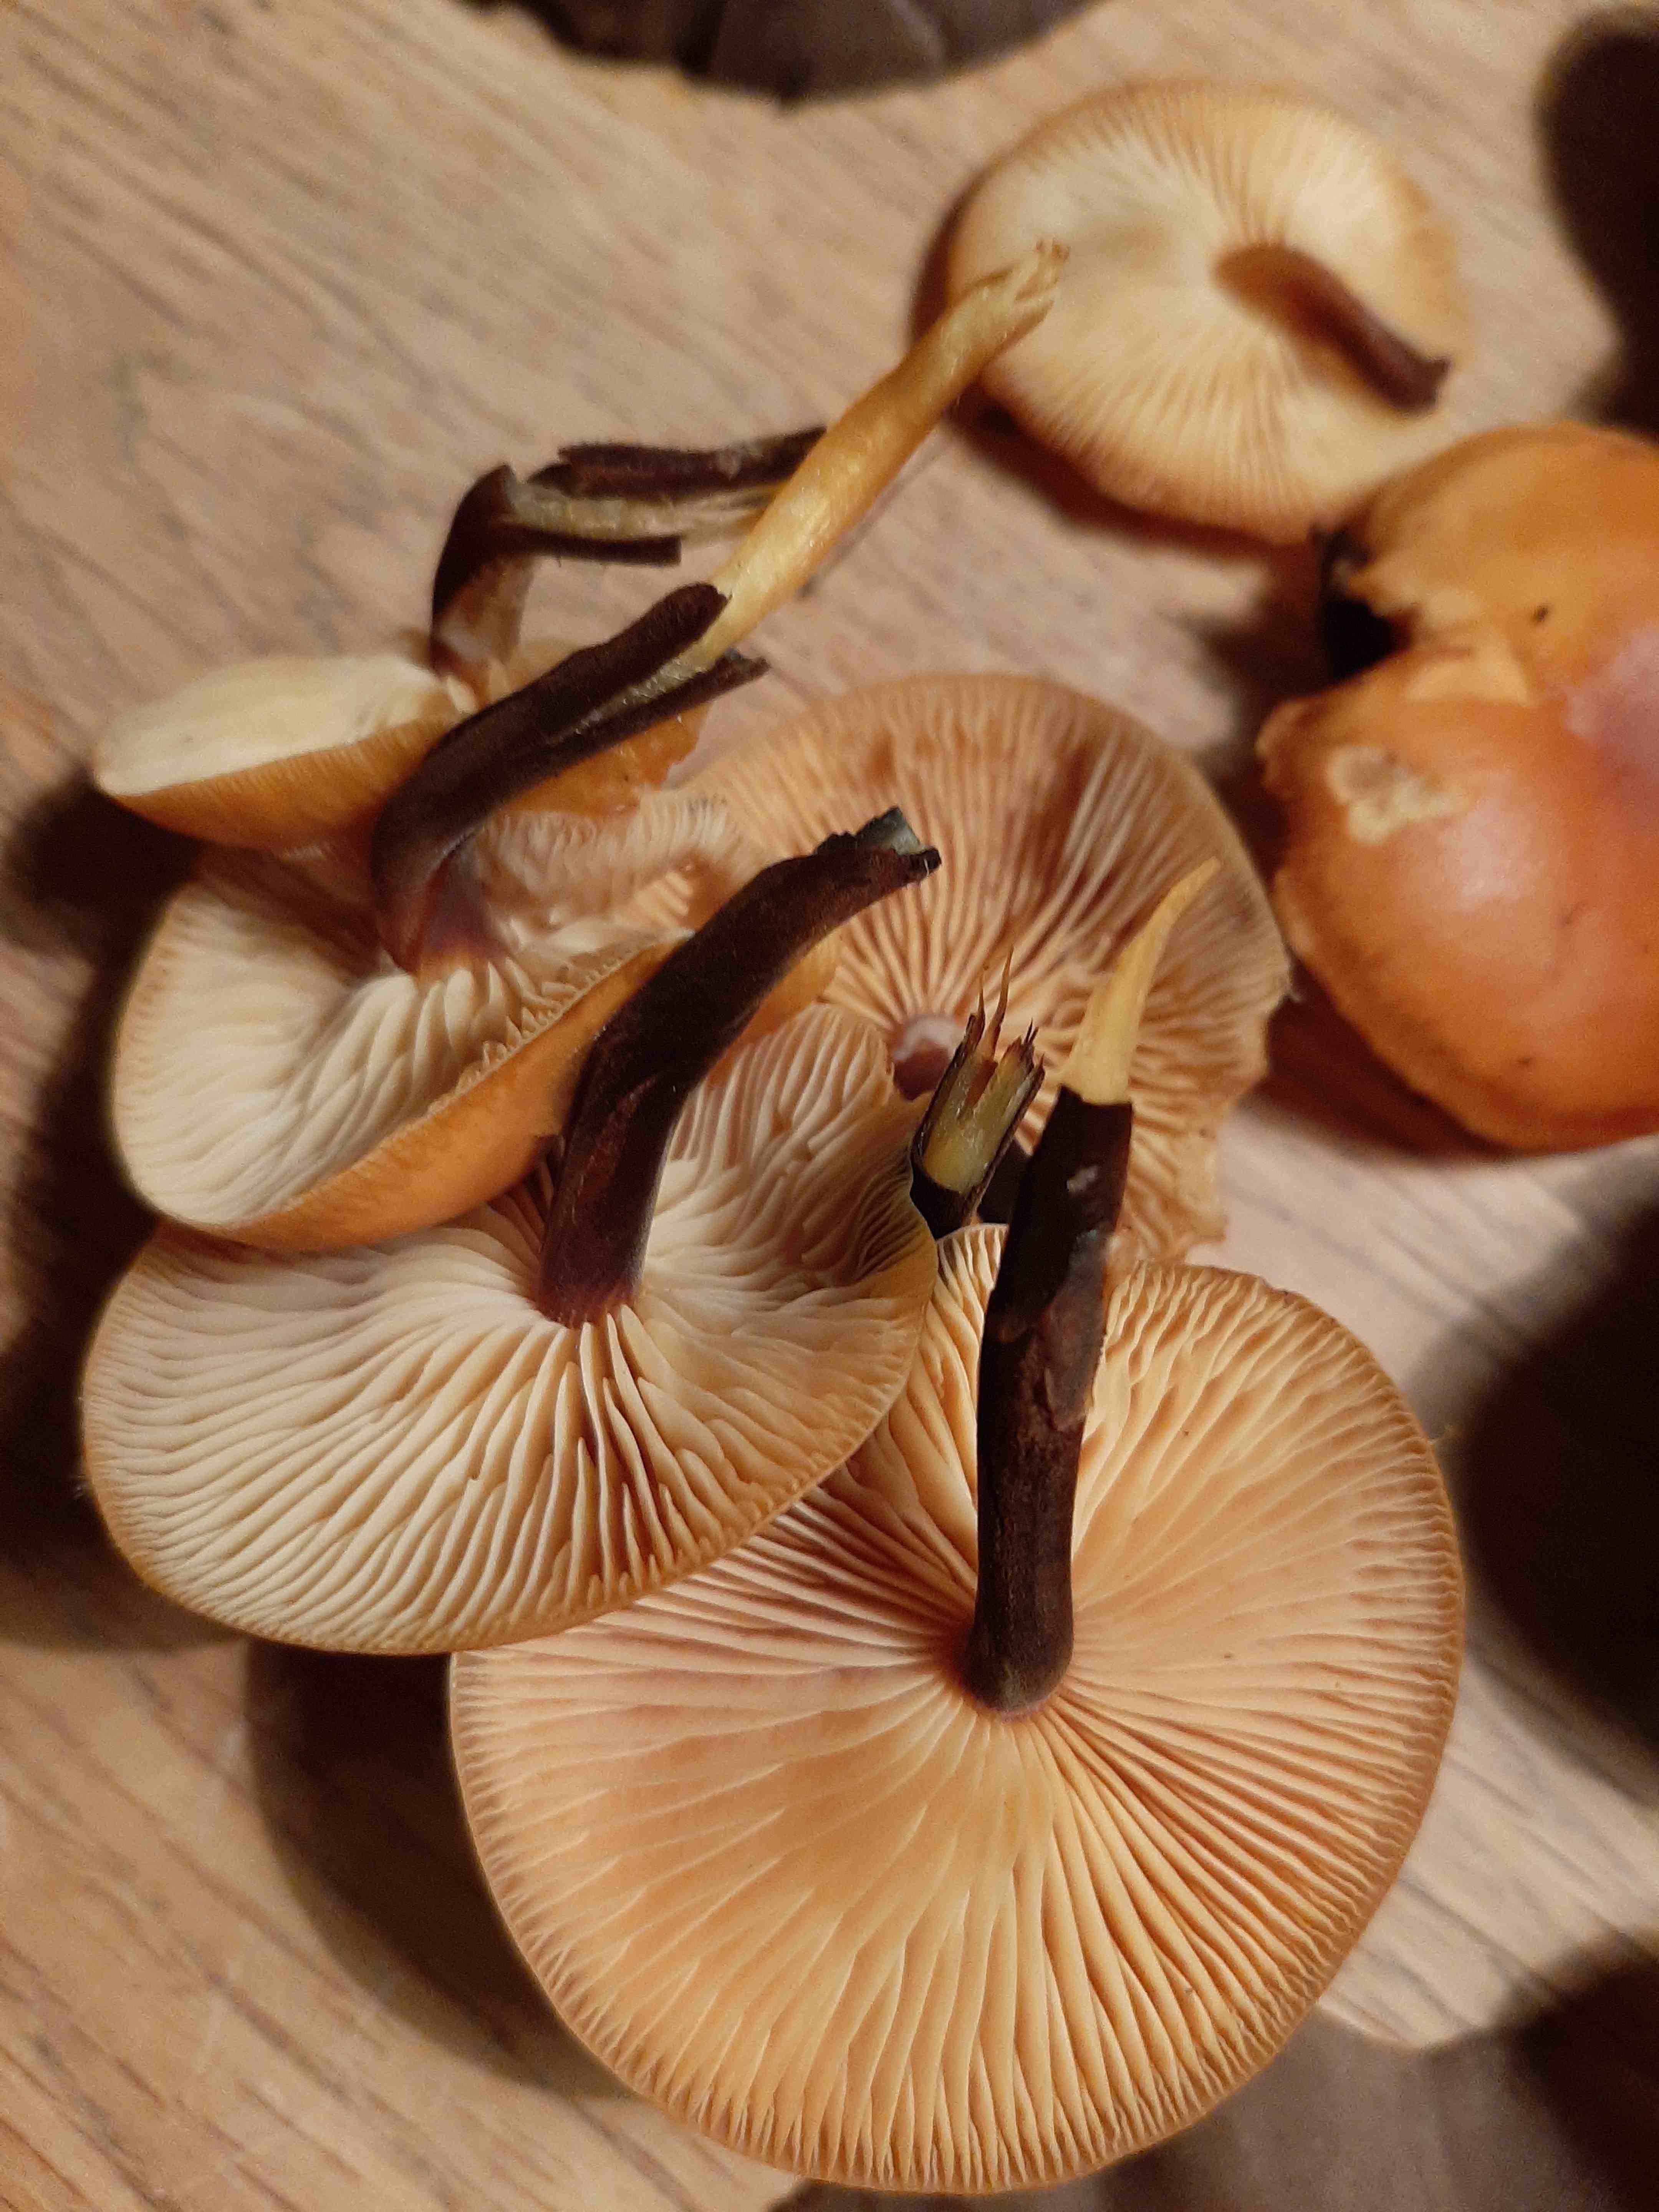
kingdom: Fungi
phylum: Basidiomycota
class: Agaricomycetes
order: Agaricales
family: Physalacriaceae
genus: Flammulina
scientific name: Flammulina
